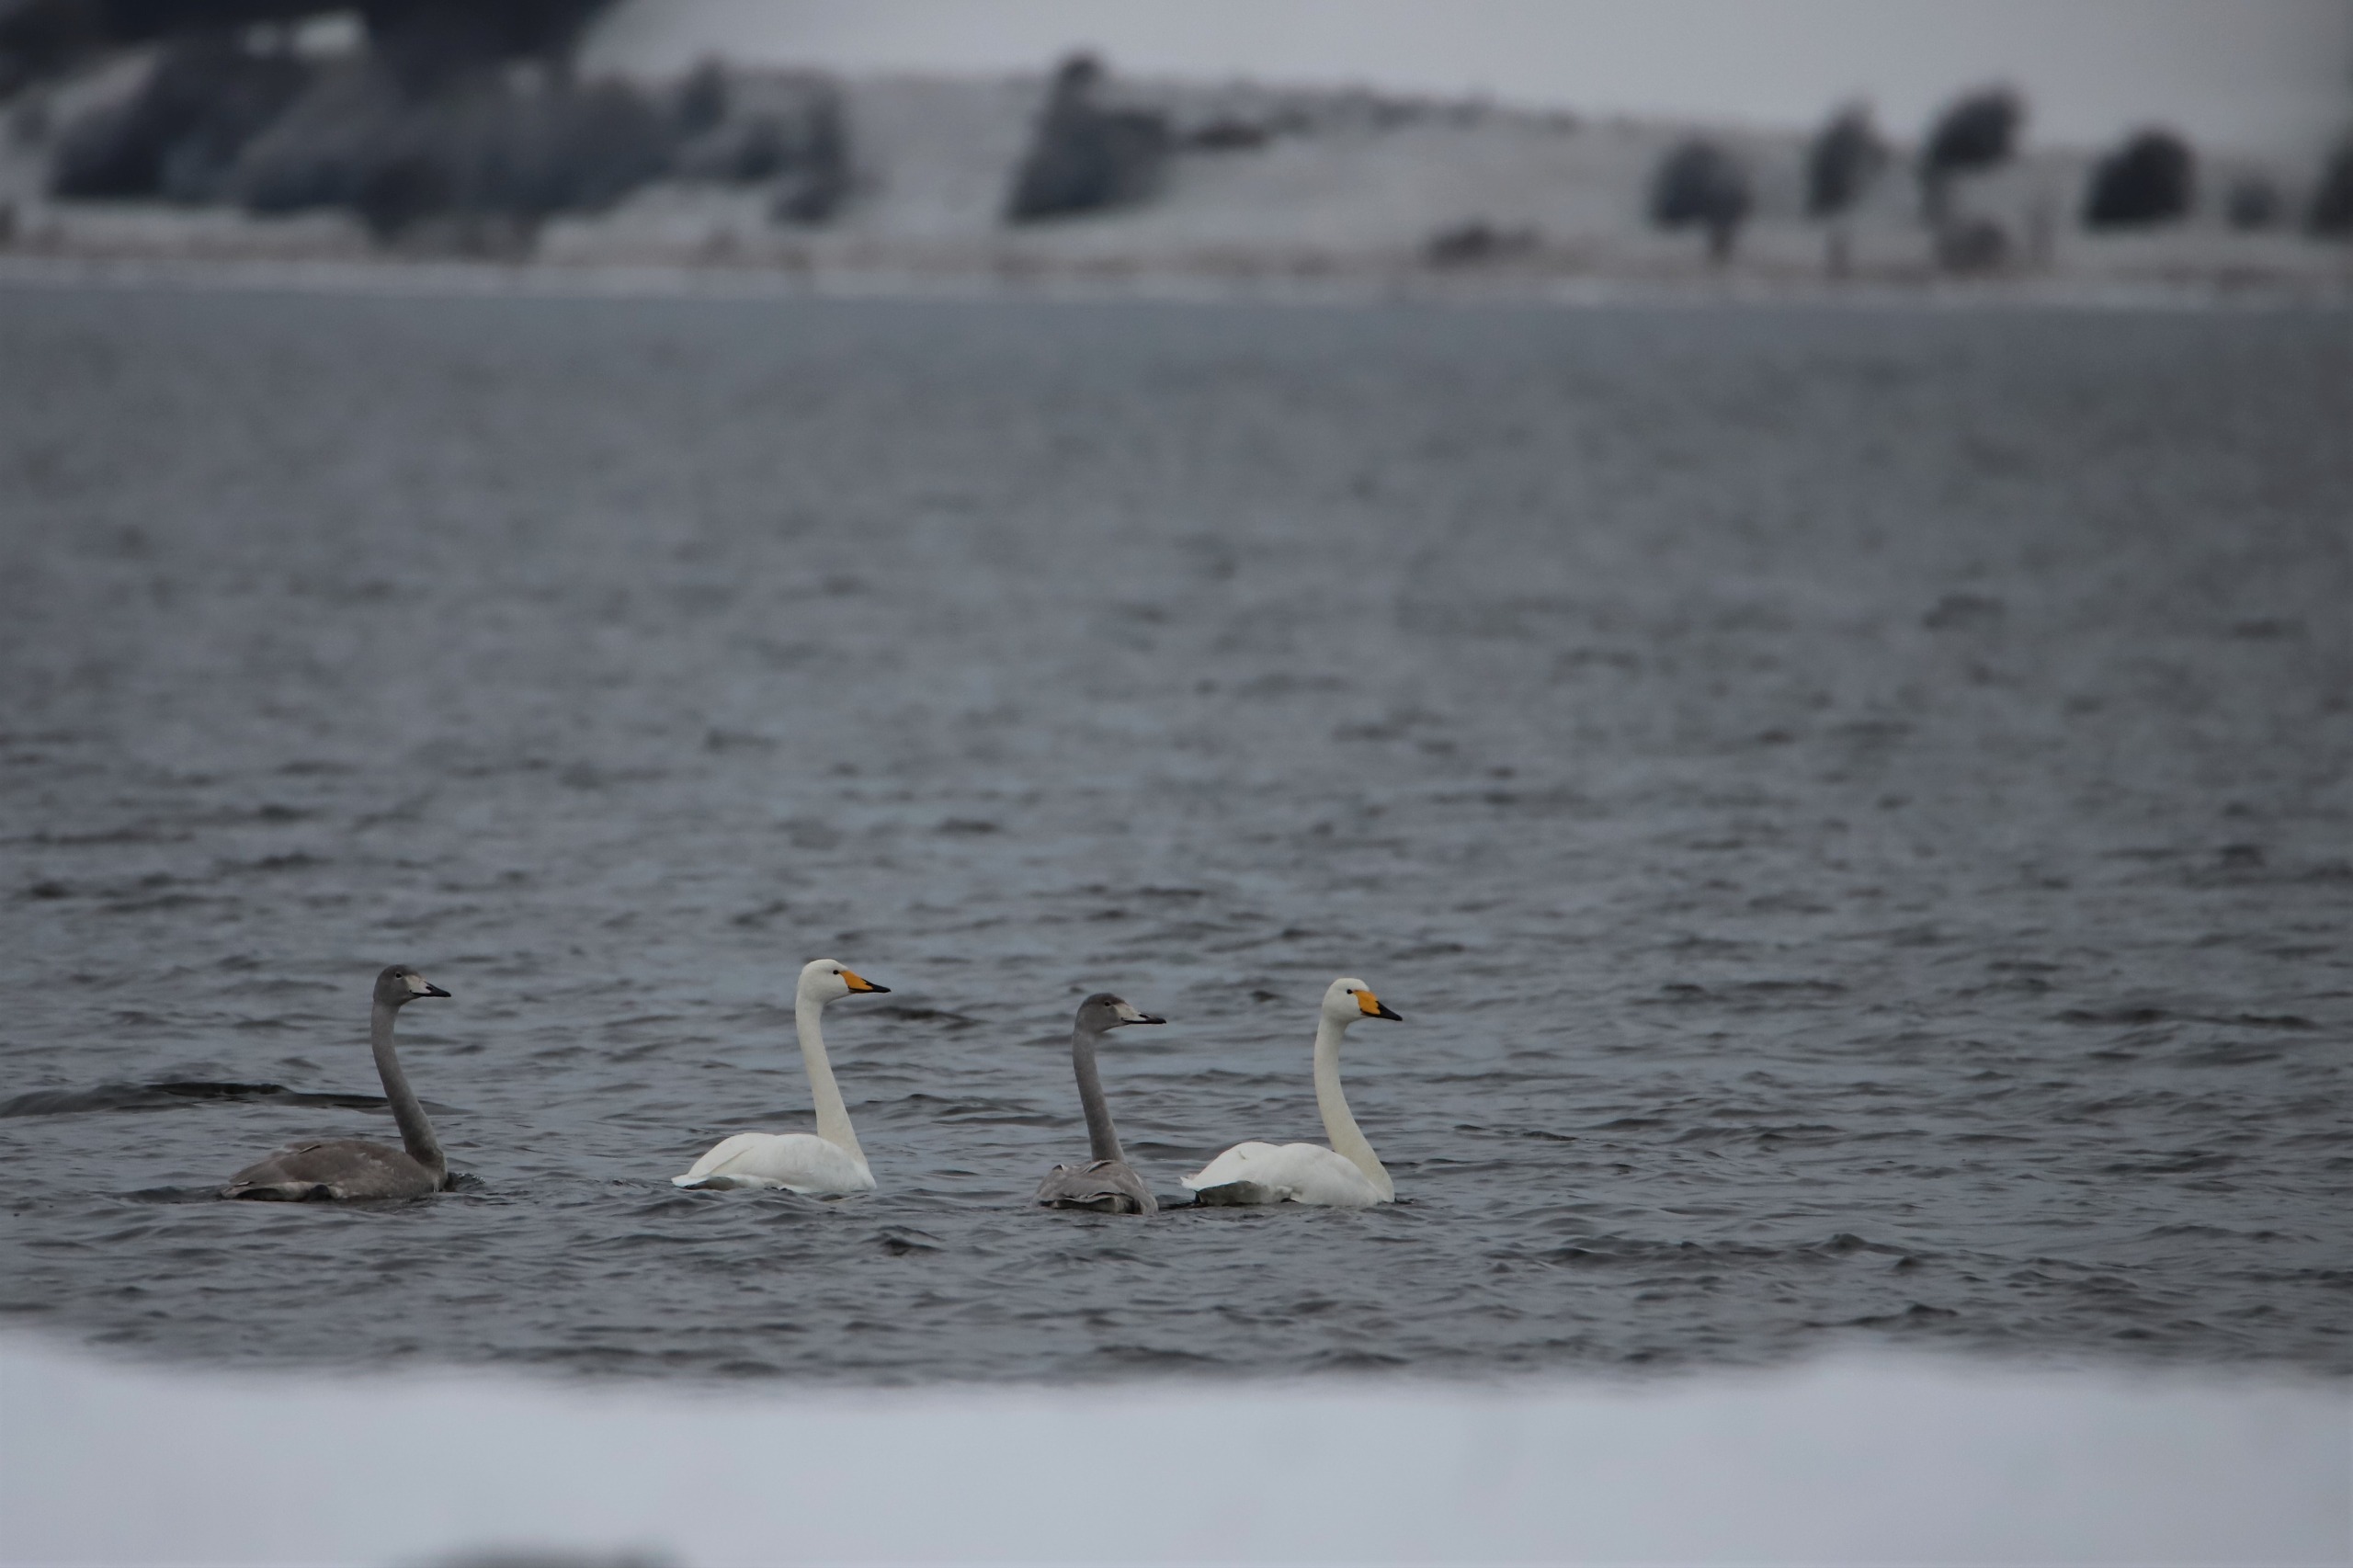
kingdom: Animalia
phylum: Chordata
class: Aves
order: Anseriformes
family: Anatidae
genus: Cygnus
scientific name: Cygnus cygnus
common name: Sangsvane
